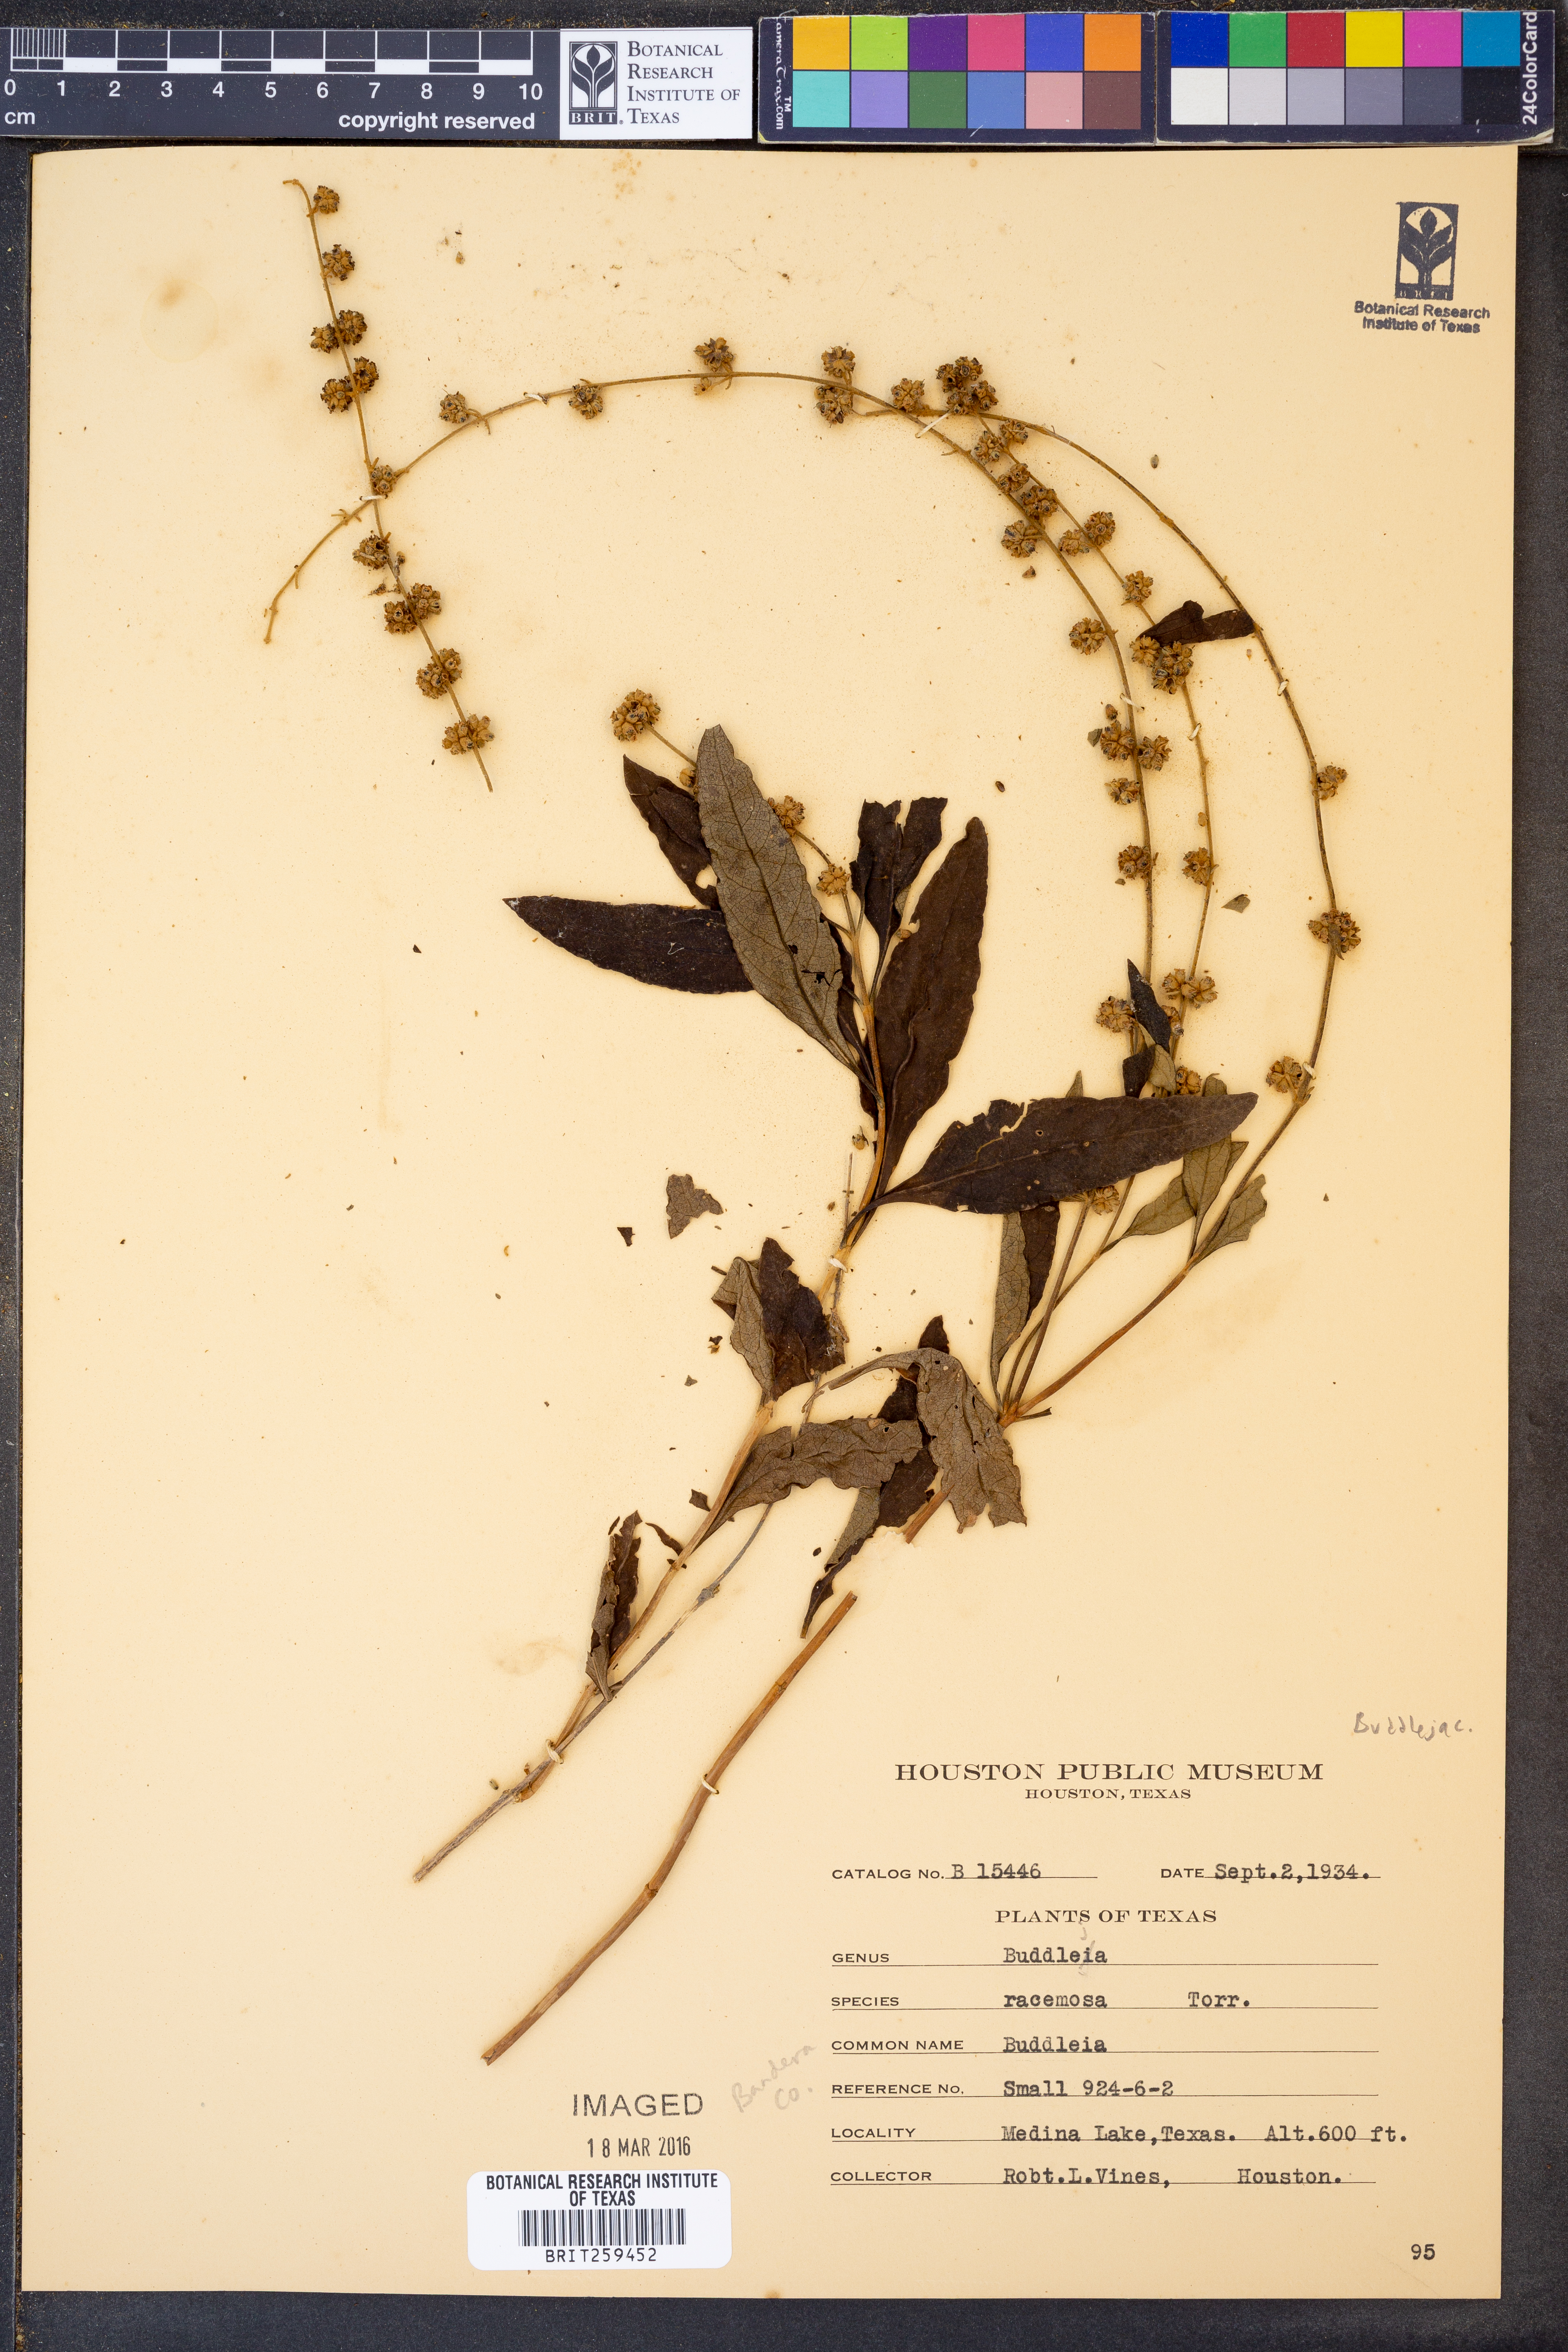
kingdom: Plantae
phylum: Tracheophyta
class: Magnoliopsida
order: Lamiales
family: Scrophulariaceae
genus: Buddleja
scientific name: Buddleja racemosa
